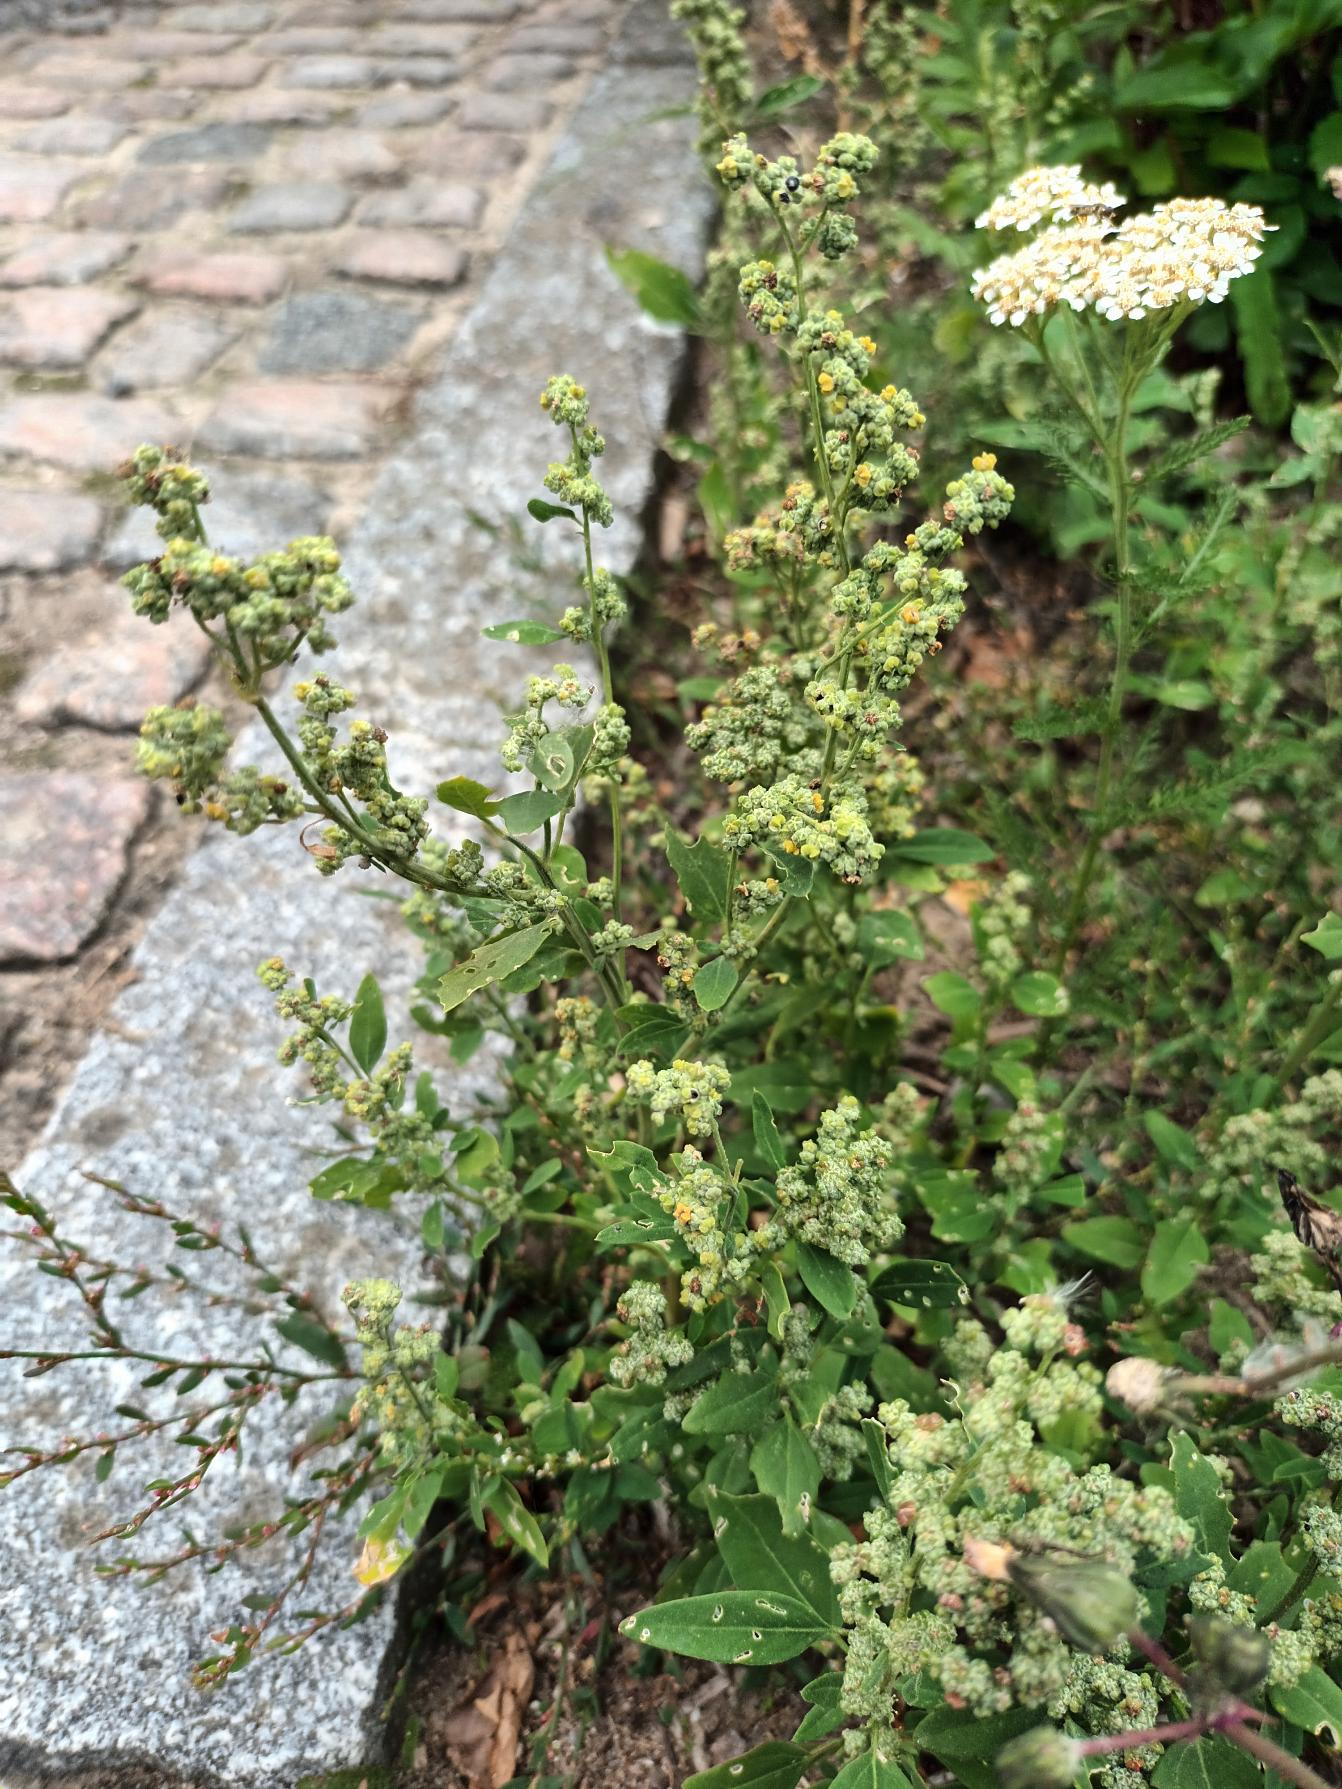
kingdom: Plantae
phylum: Tracheophyta
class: Magnoliopsida
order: Caryophyllales
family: Amaranthaceae
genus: Chenopodium
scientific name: Chenopodium album
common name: Hvidmelet gåsefod
